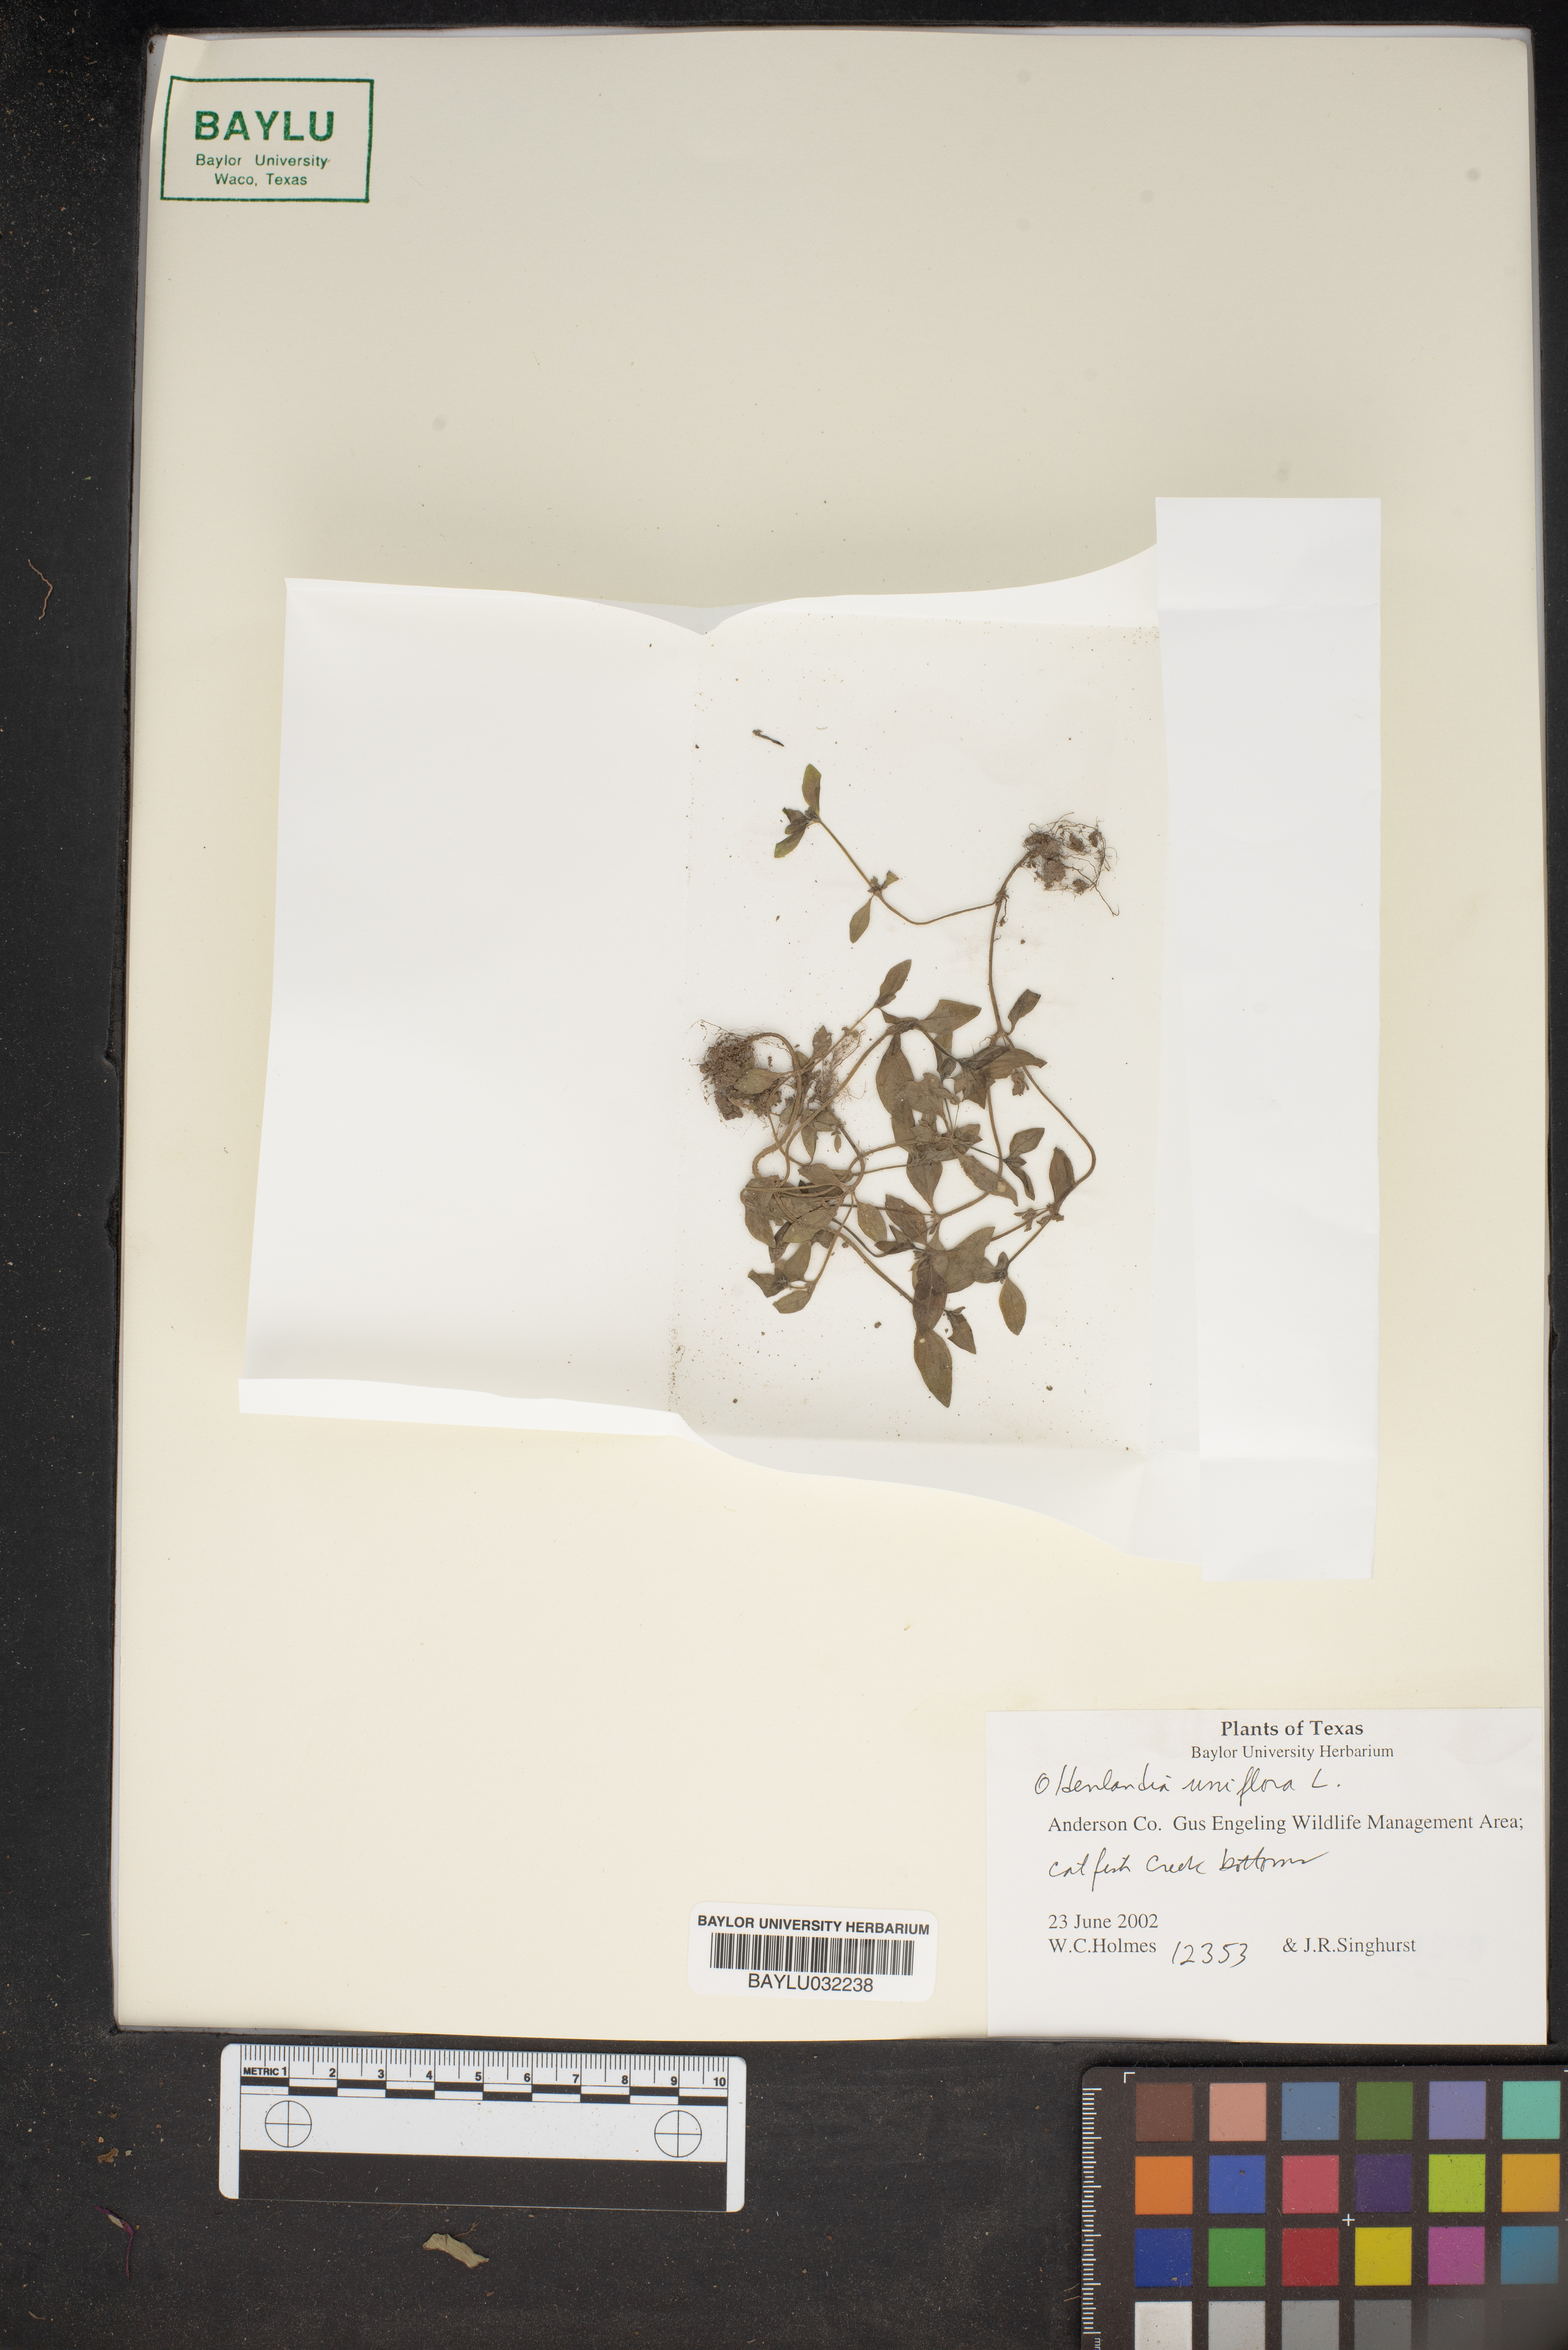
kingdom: Plantae
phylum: Tracheophyta
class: Magnoliopsida
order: Gentianales
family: Rubiaceae
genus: Edrastima
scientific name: Edrastima uniflora
